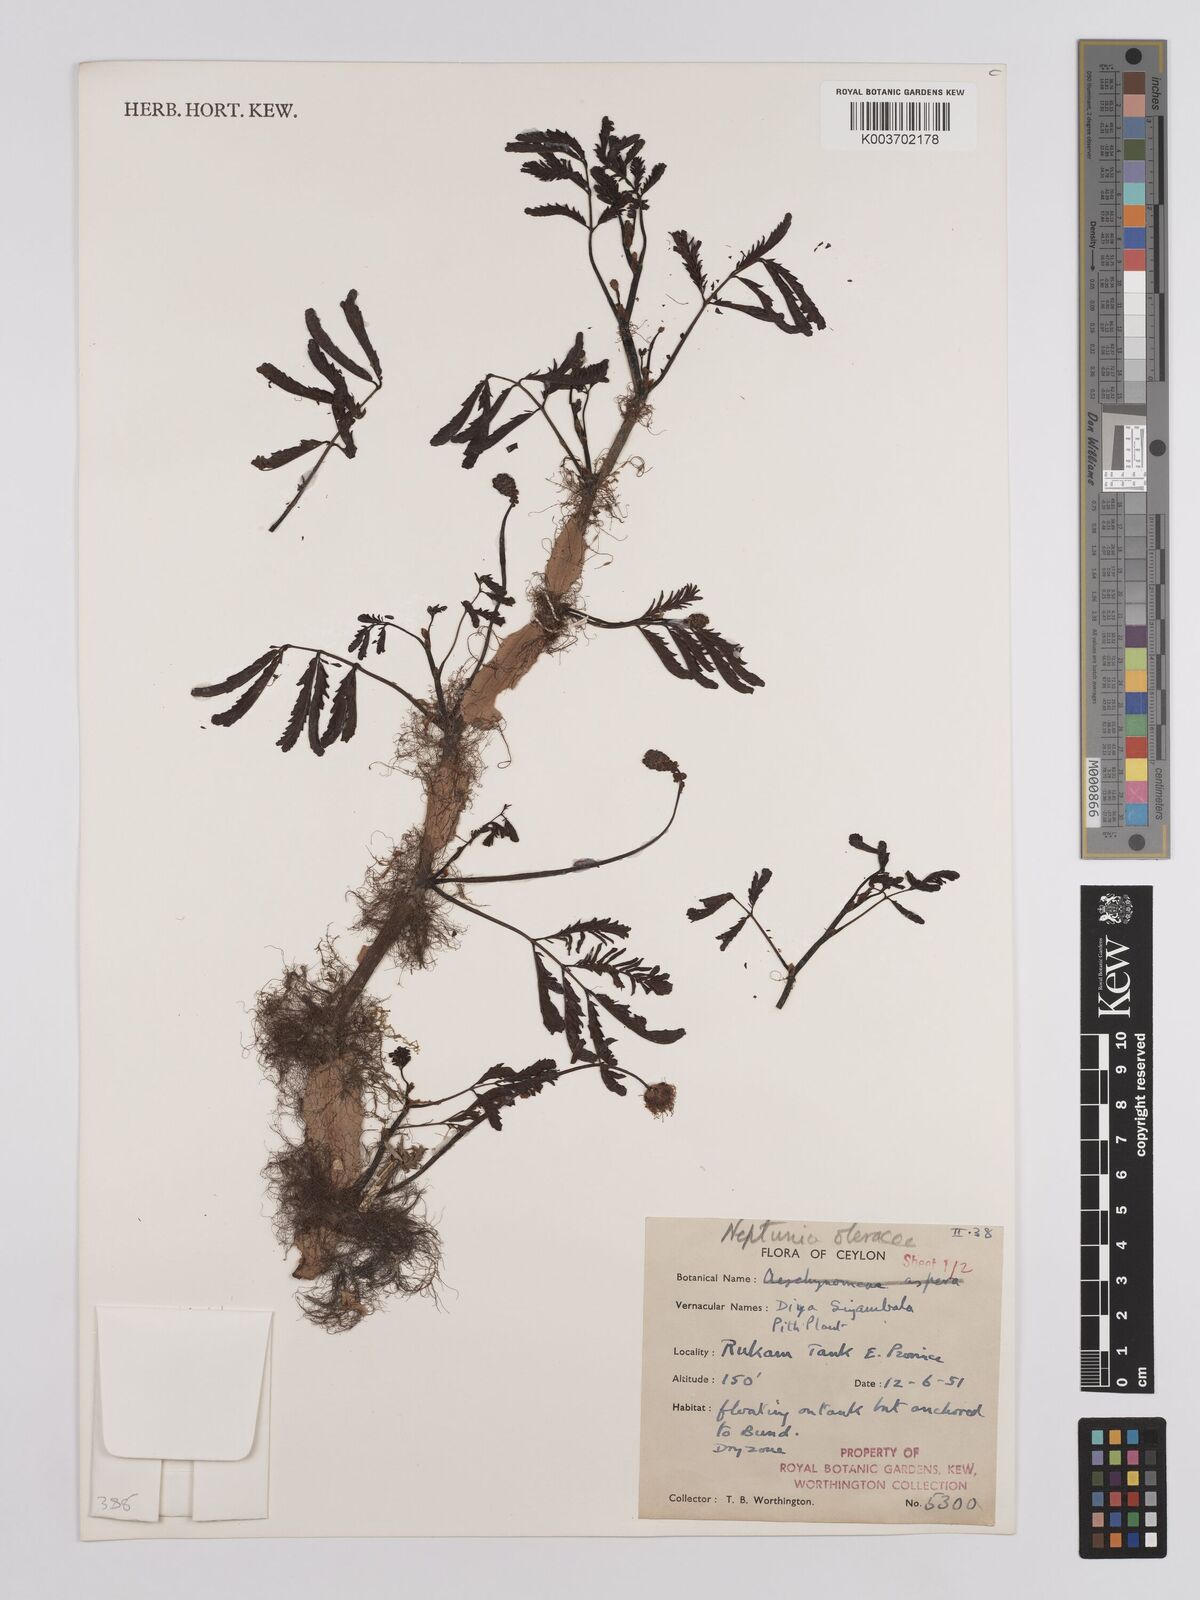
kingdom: Plantae
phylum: Tracheophyta
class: Magnoliopsida
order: Fabales
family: Fabaceae
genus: Neptunia
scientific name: Neptunia prostrata
